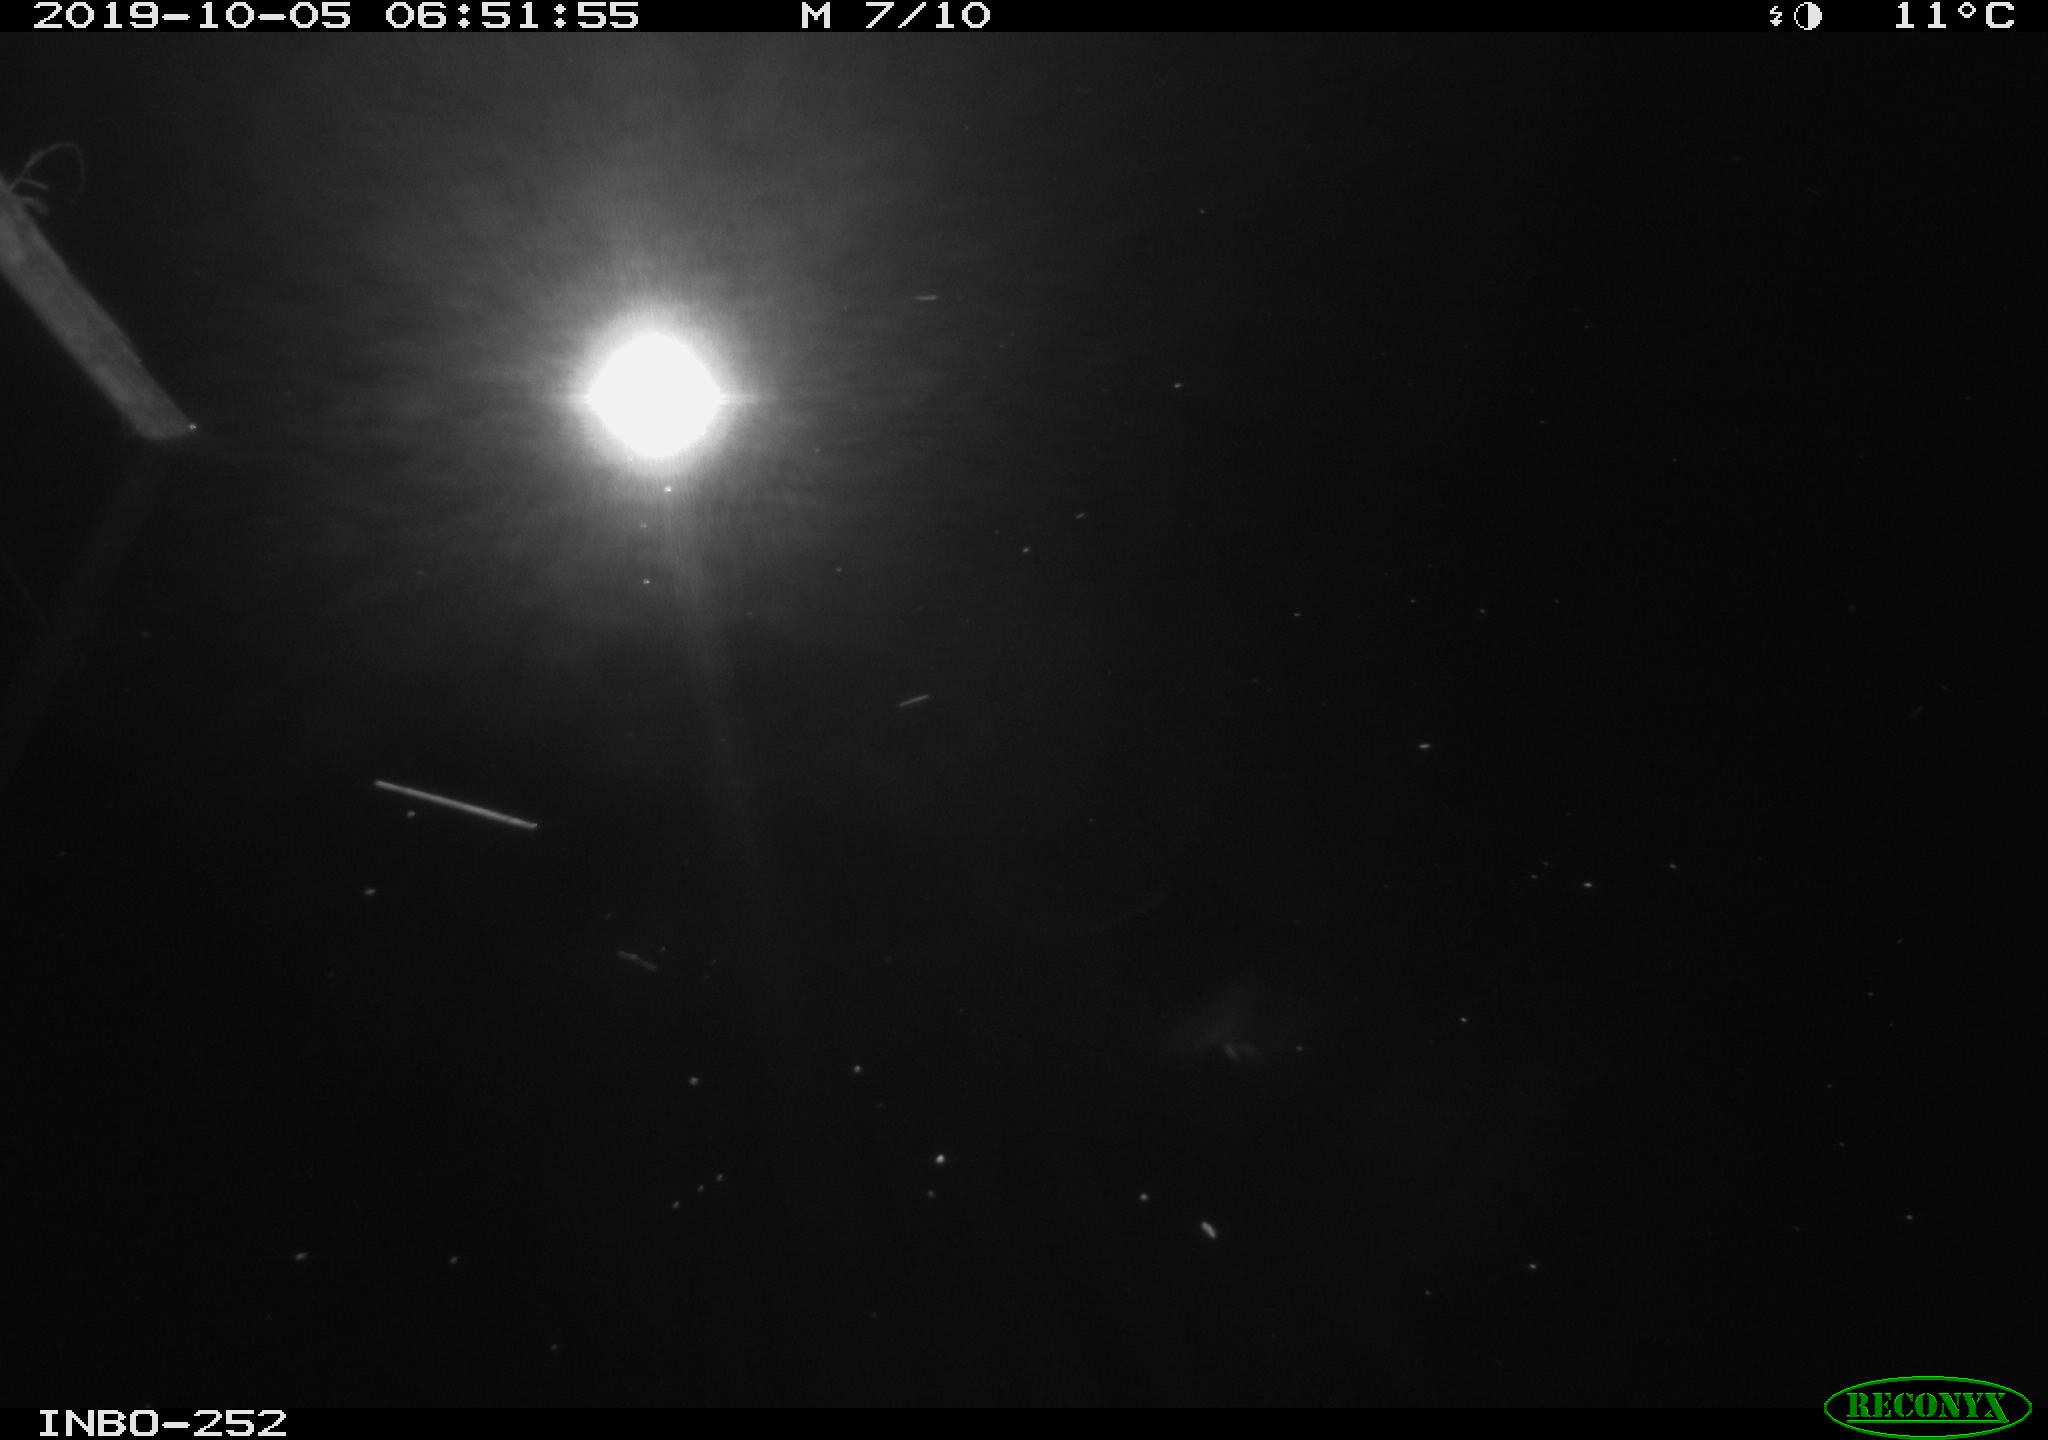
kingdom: Animalia
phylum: Chordata
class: Aves
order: Anseriformes
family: Anatidae
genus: Anas
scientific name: Anas platyrhynchos
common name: Mallard
